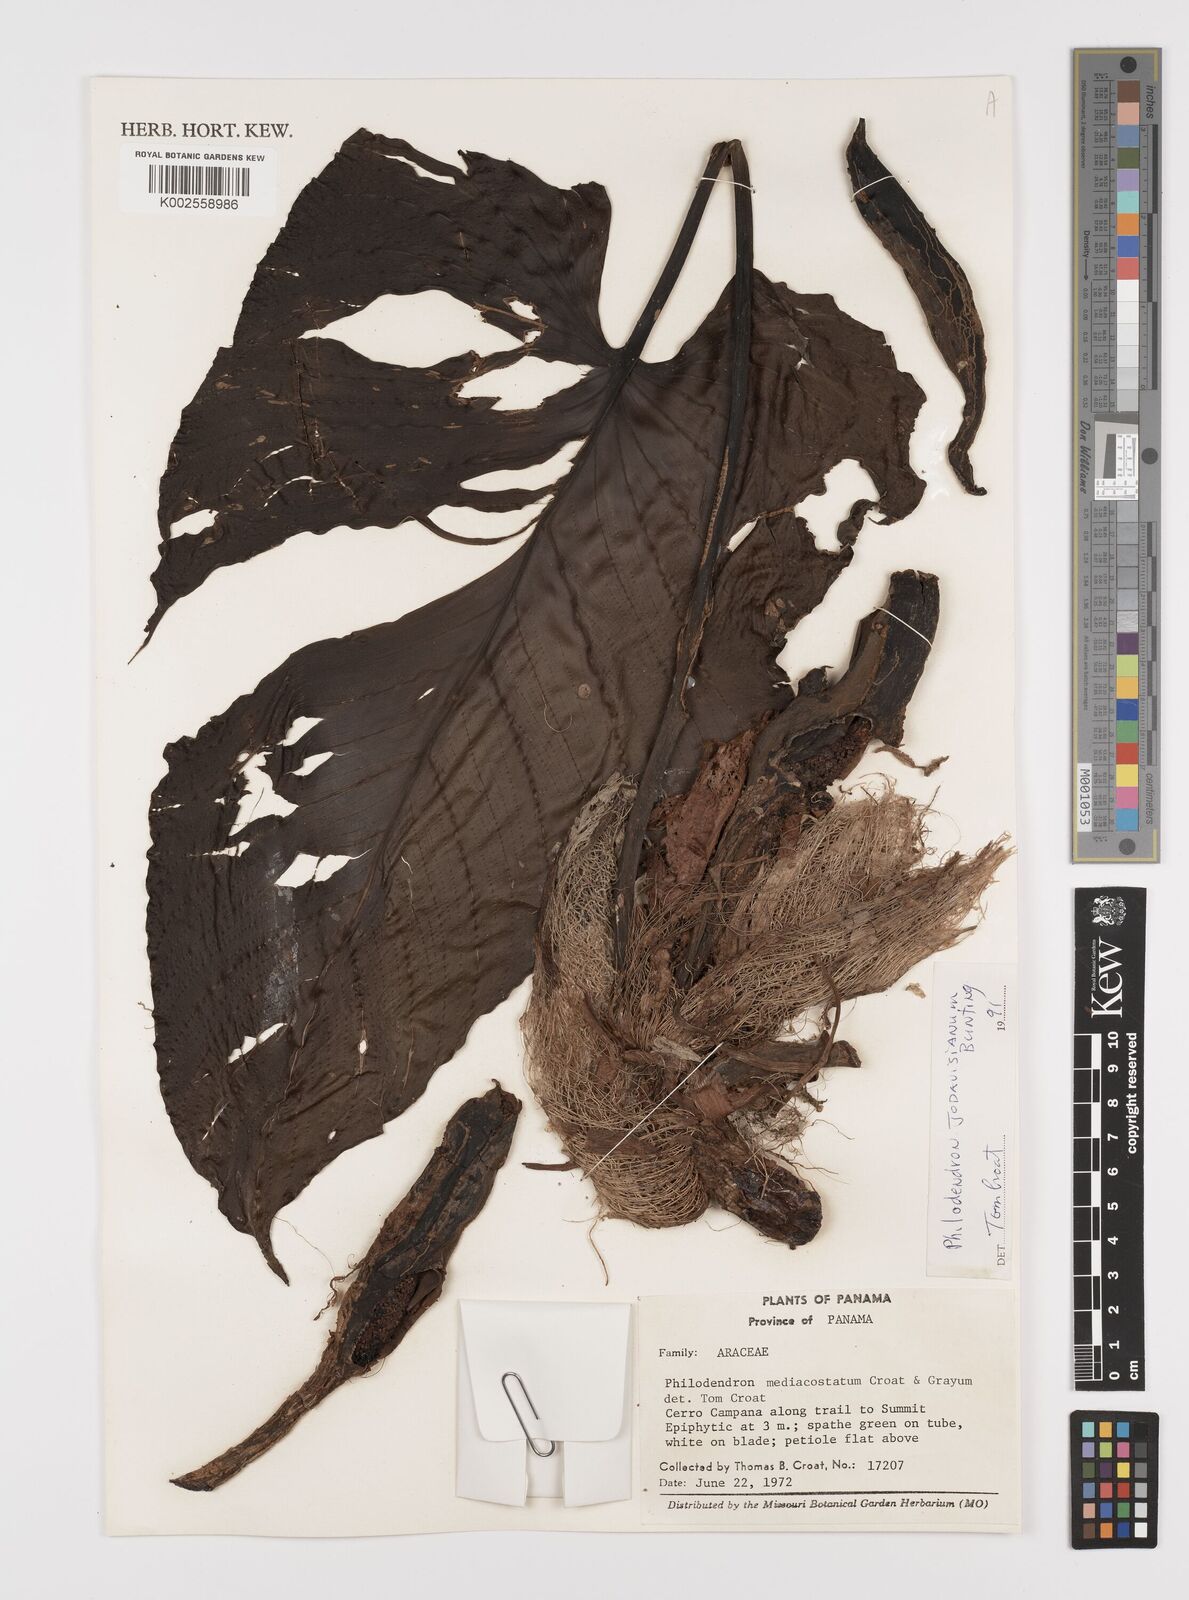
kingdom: Plantae
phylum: Tracheophyta
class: Liliopsida
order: Alismatales
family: Araceae
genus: Philodendron
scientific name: Philodendron jodavisianum
